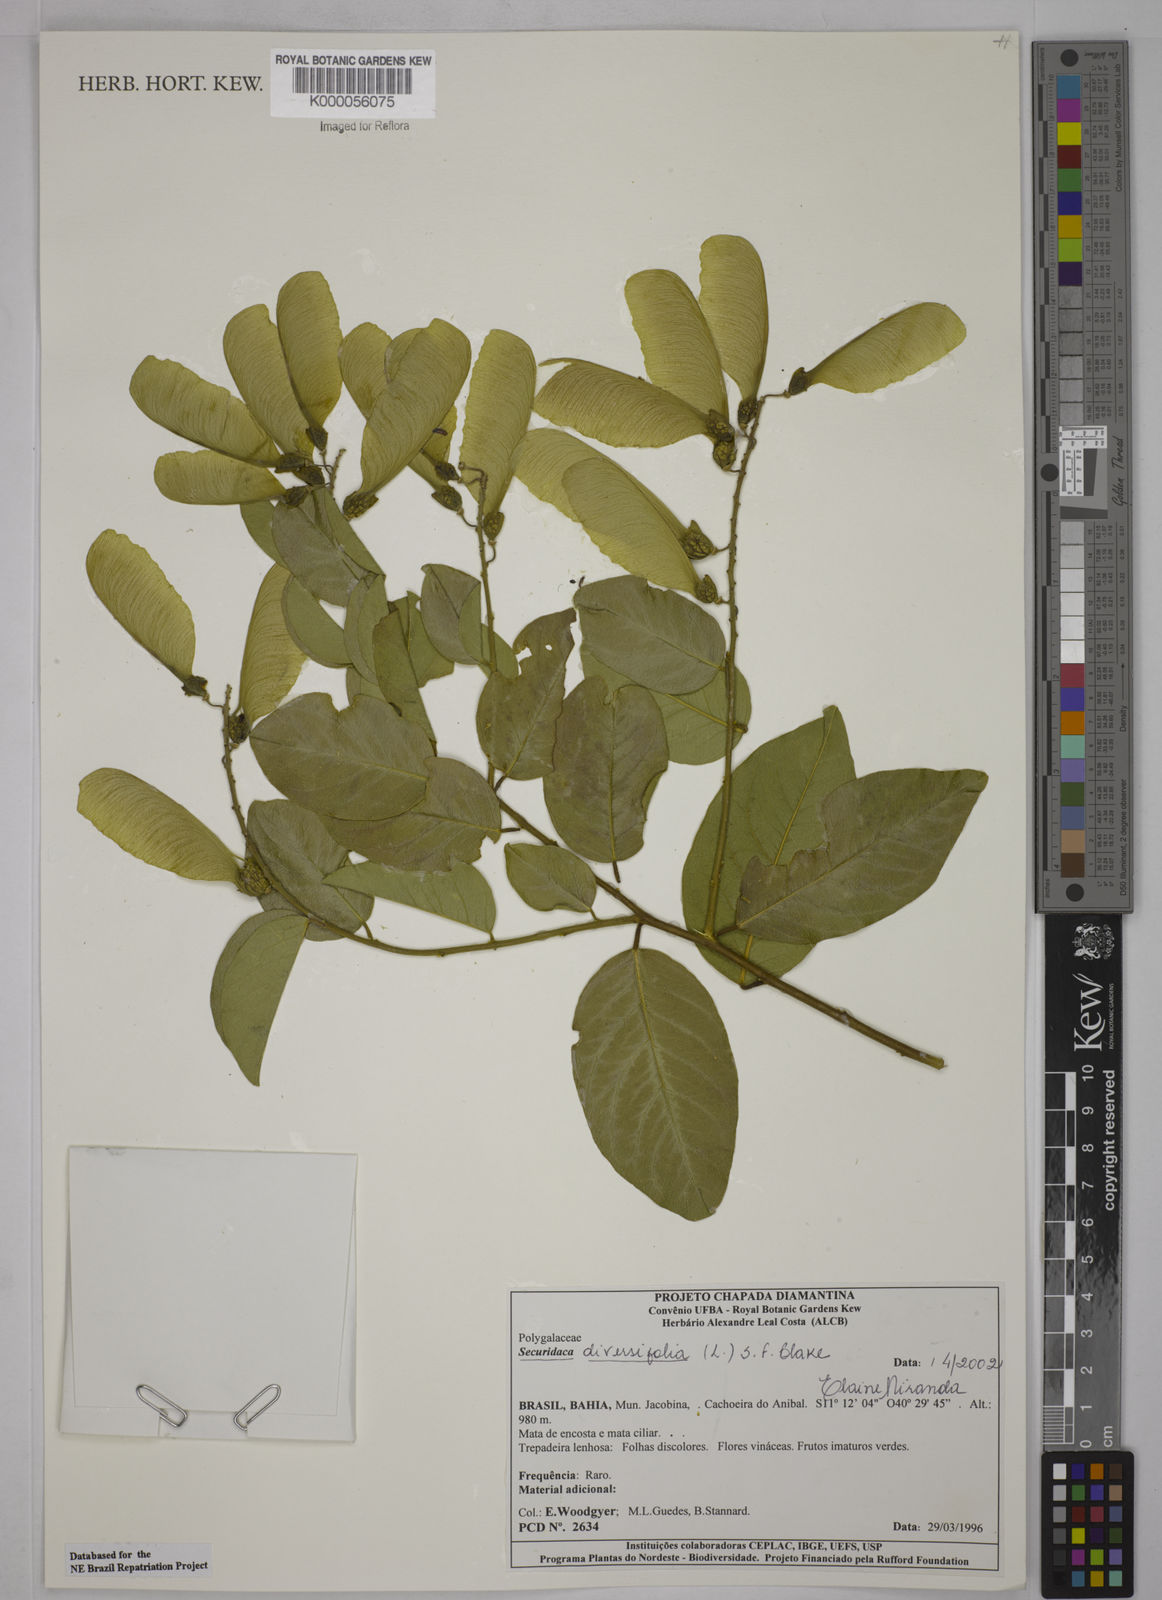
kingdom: Plantae
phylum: Tracheophyta
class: Magnoliopsida
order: Fabales
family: Polygalaceae
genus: Securidaca
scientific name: Securidaca diversifolia
